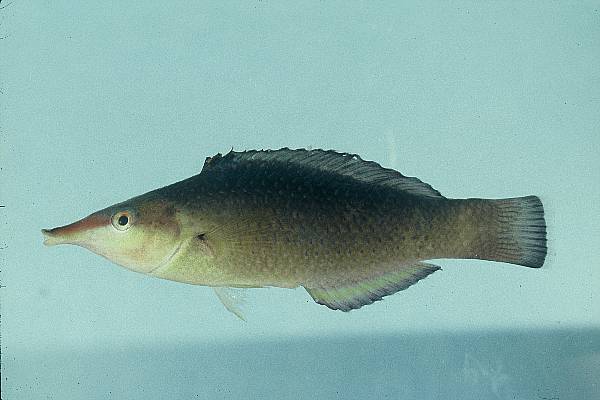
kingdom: Animalia
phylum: Chordata
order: Perciformes
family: Labridae
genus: Gomphosus
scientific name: Gomphosus caeruleus
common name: Bird wrasse
